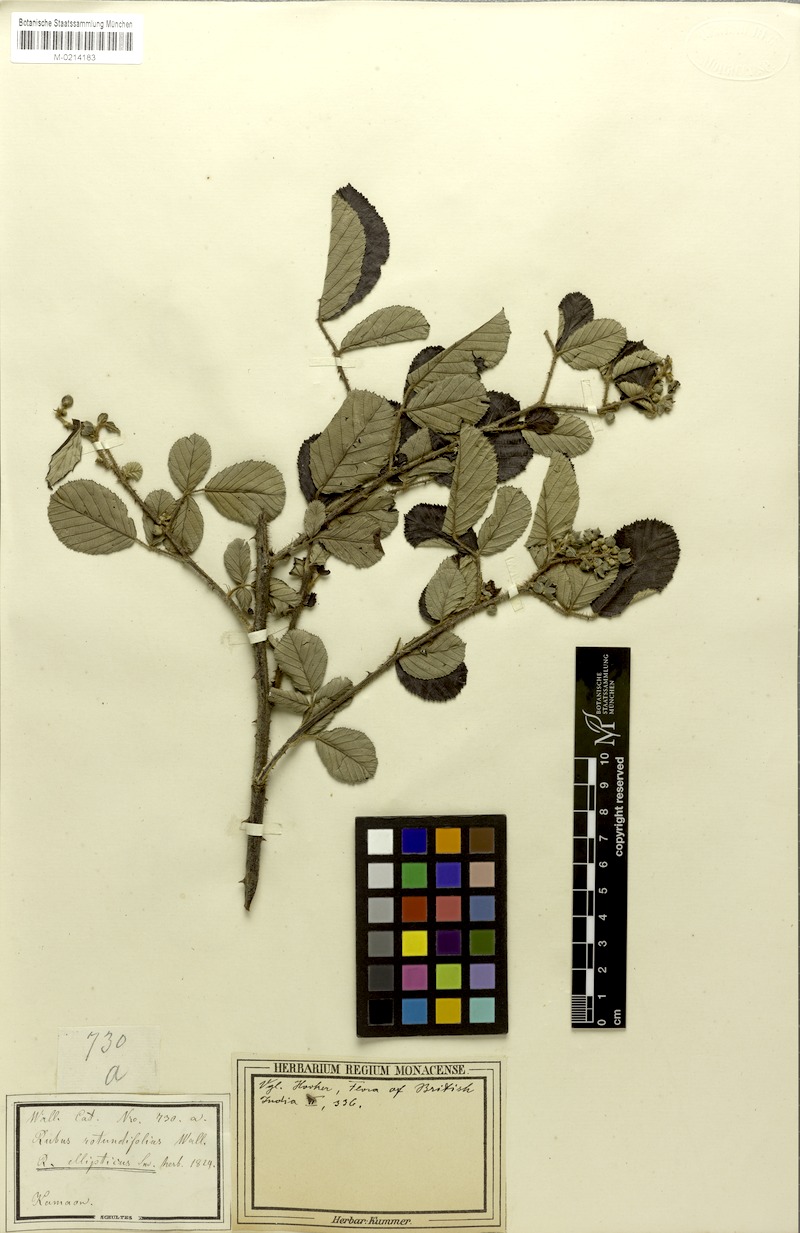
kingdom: Plantae
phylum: Tracheophyta
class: Magnoliopsida
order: Rosales
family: Rosaceae
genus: Rubus
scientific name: Rubus ellipticus
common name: Cheeseberry
